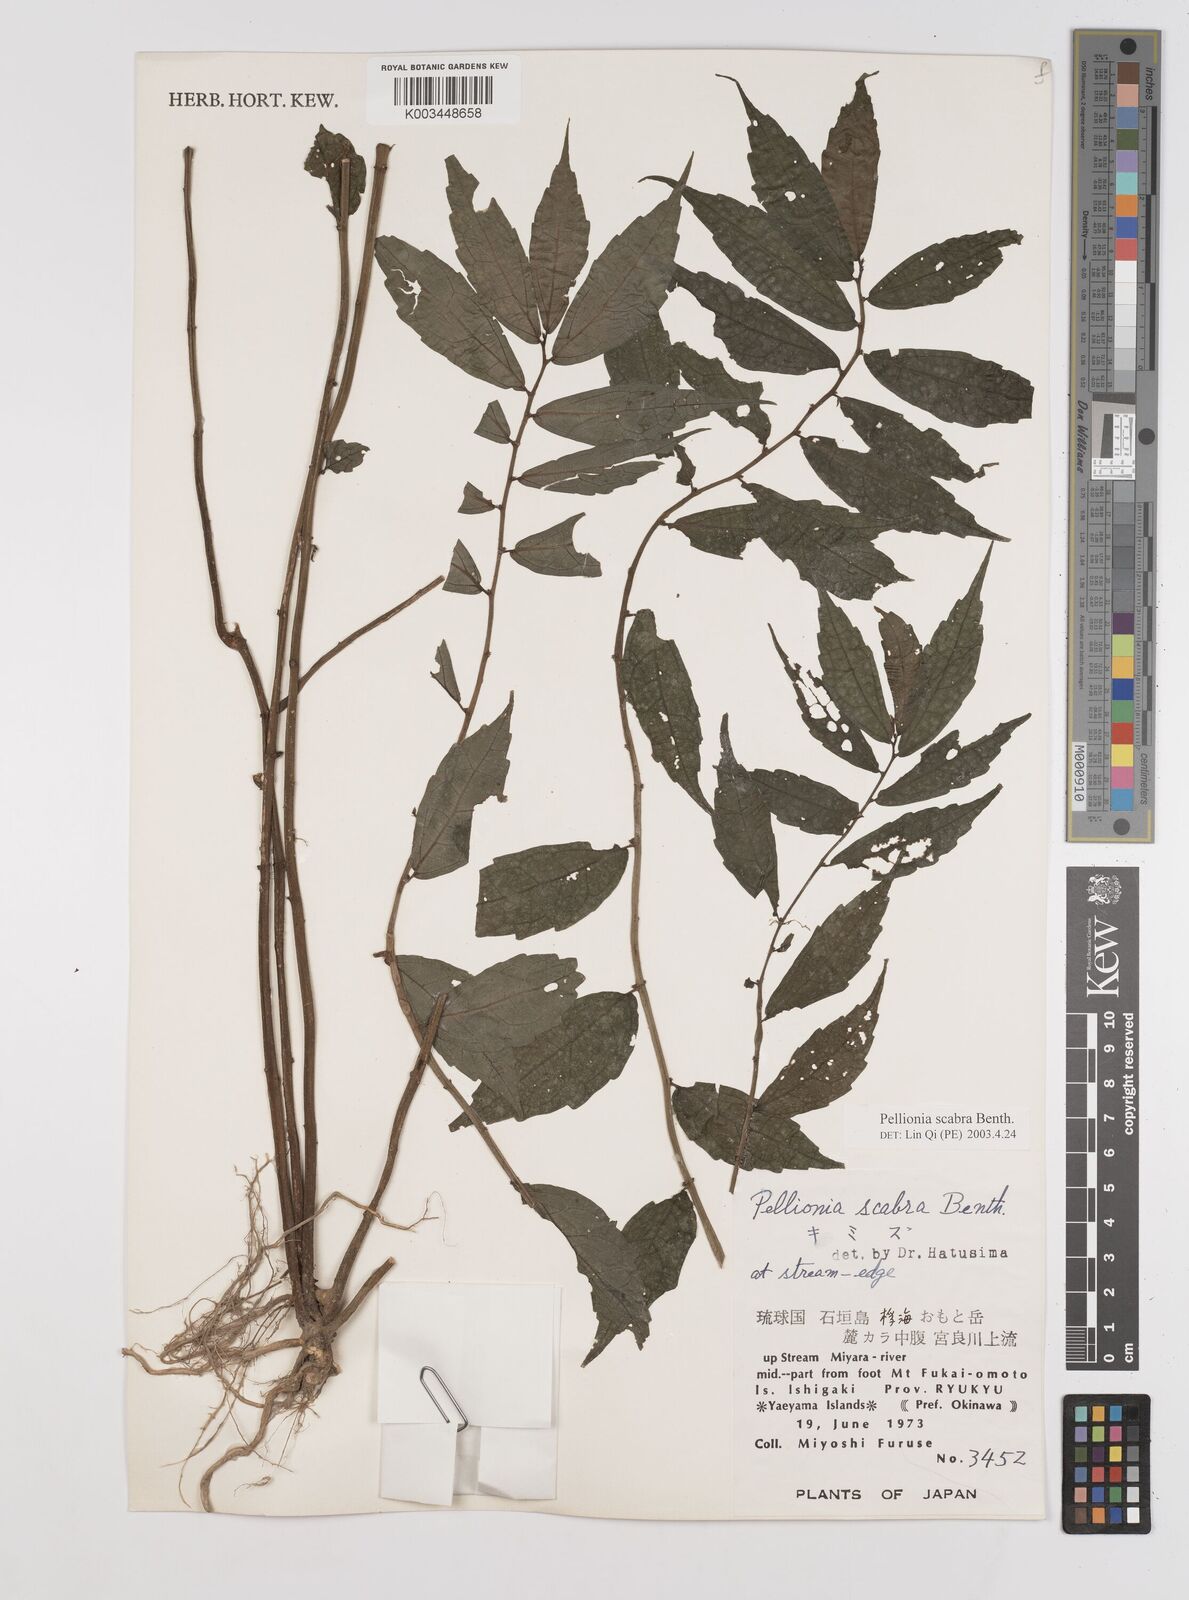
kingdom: Plantae
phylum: Tracheophyta
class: Magnoliopsida
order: Rosales
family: Urticaceae
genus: Elatostema
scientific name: Elatostema
